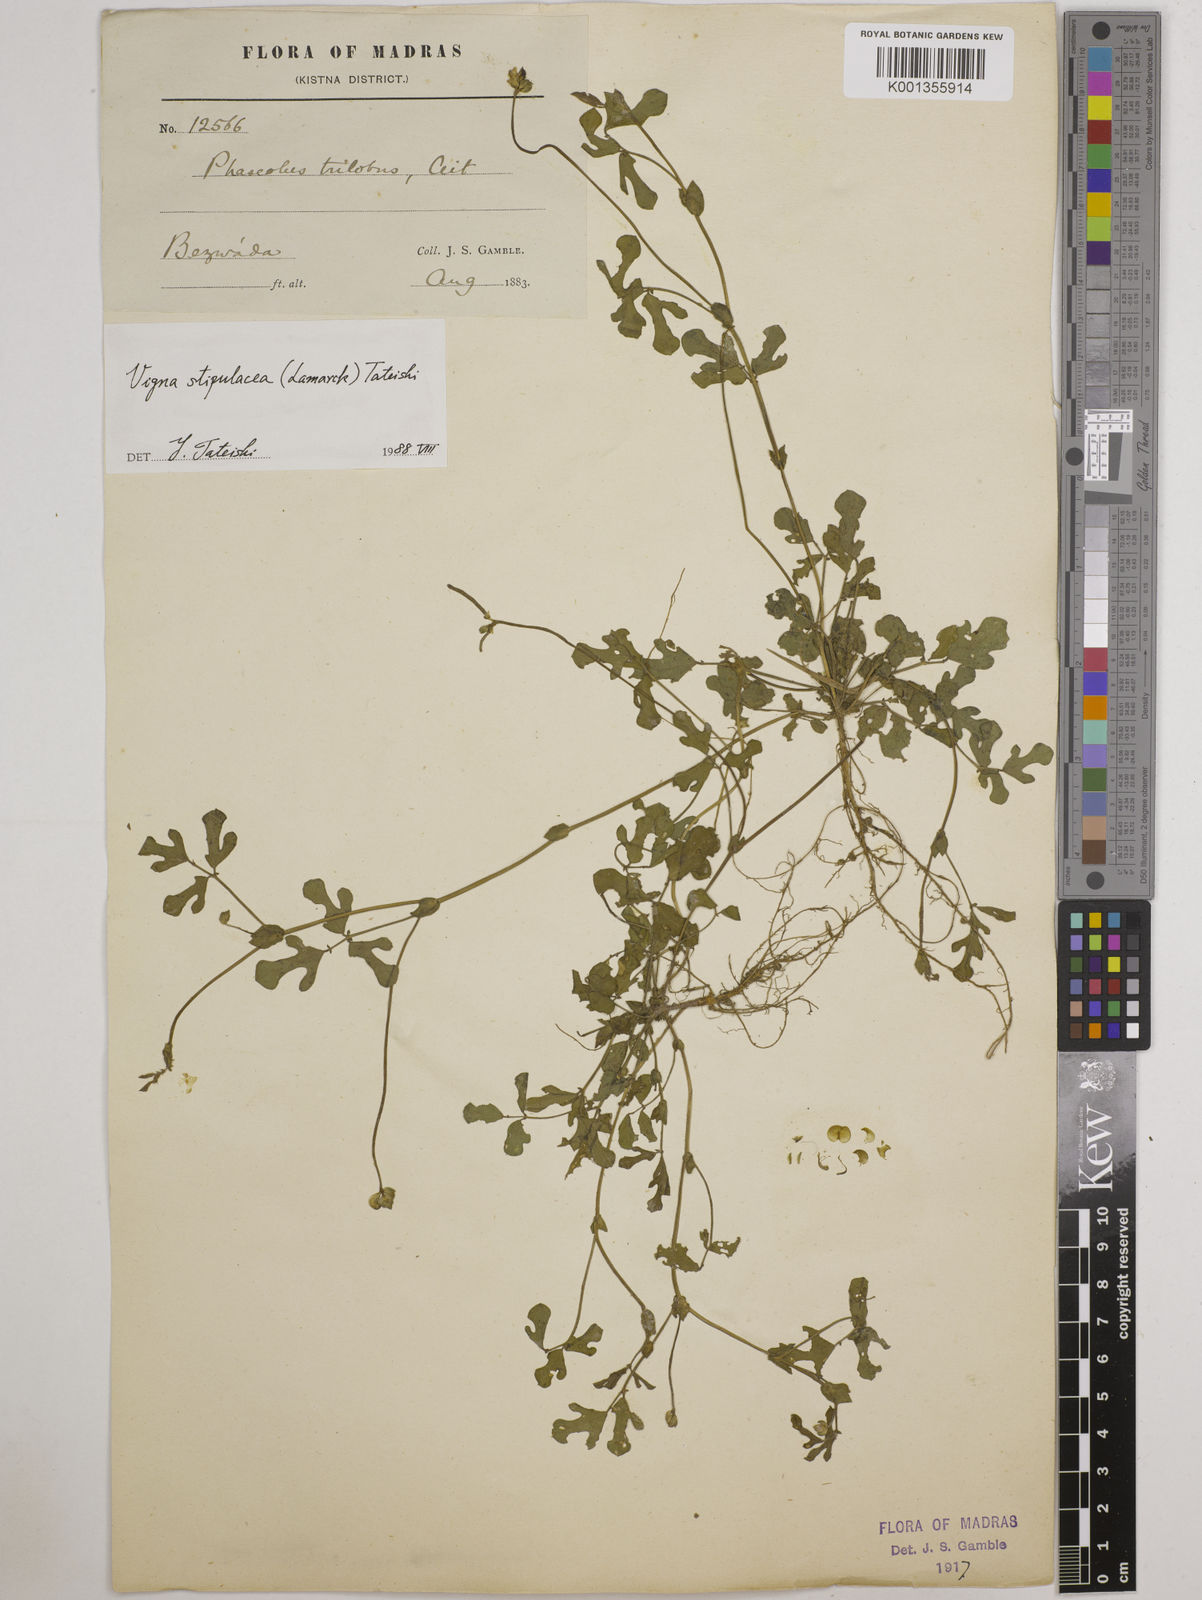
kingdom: Plantae
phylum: Tracheophyta
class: Magnoliopsida
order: Fabales
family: Fabaceae
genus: Pueraria
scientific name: Pueraria montana
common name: Kudzu
